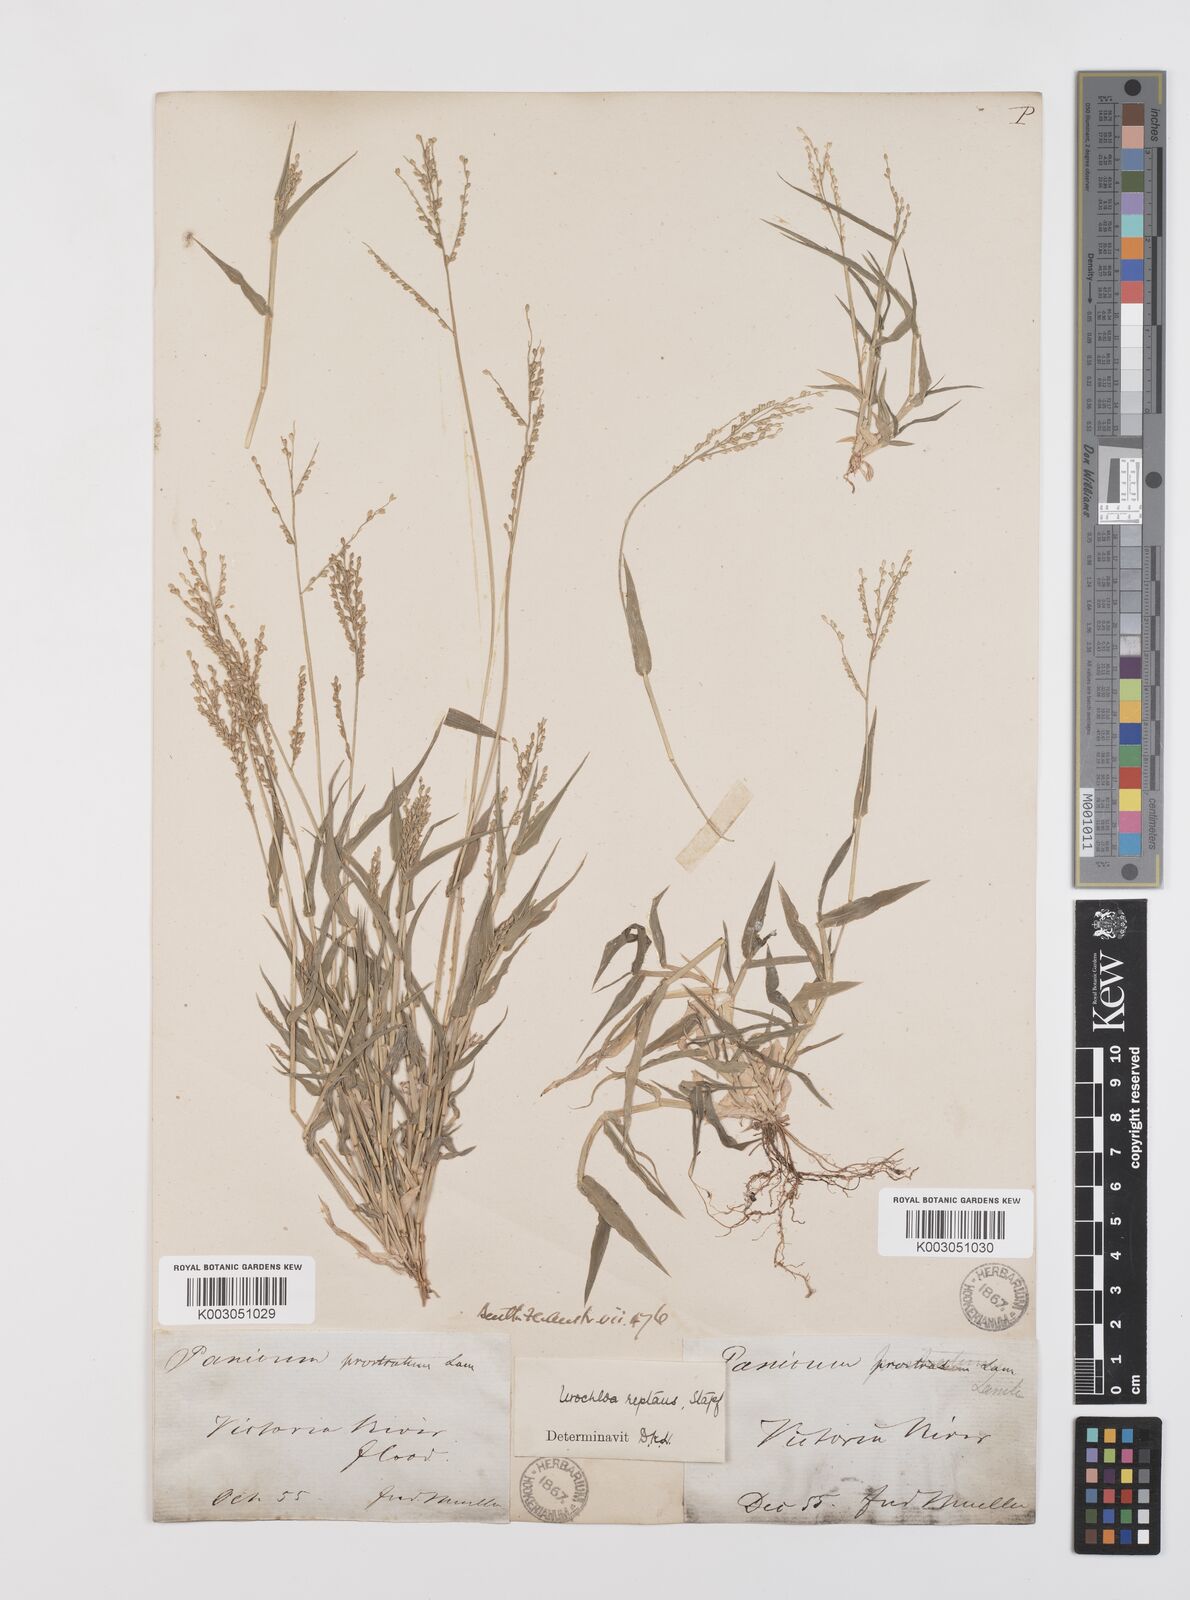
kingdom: Plantae
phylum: Tracheophyta
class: Liliopsida
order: Poales
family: Poaceae
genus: Urochloa
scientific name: Urochloa reptans
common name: Sprawling signalgrass
